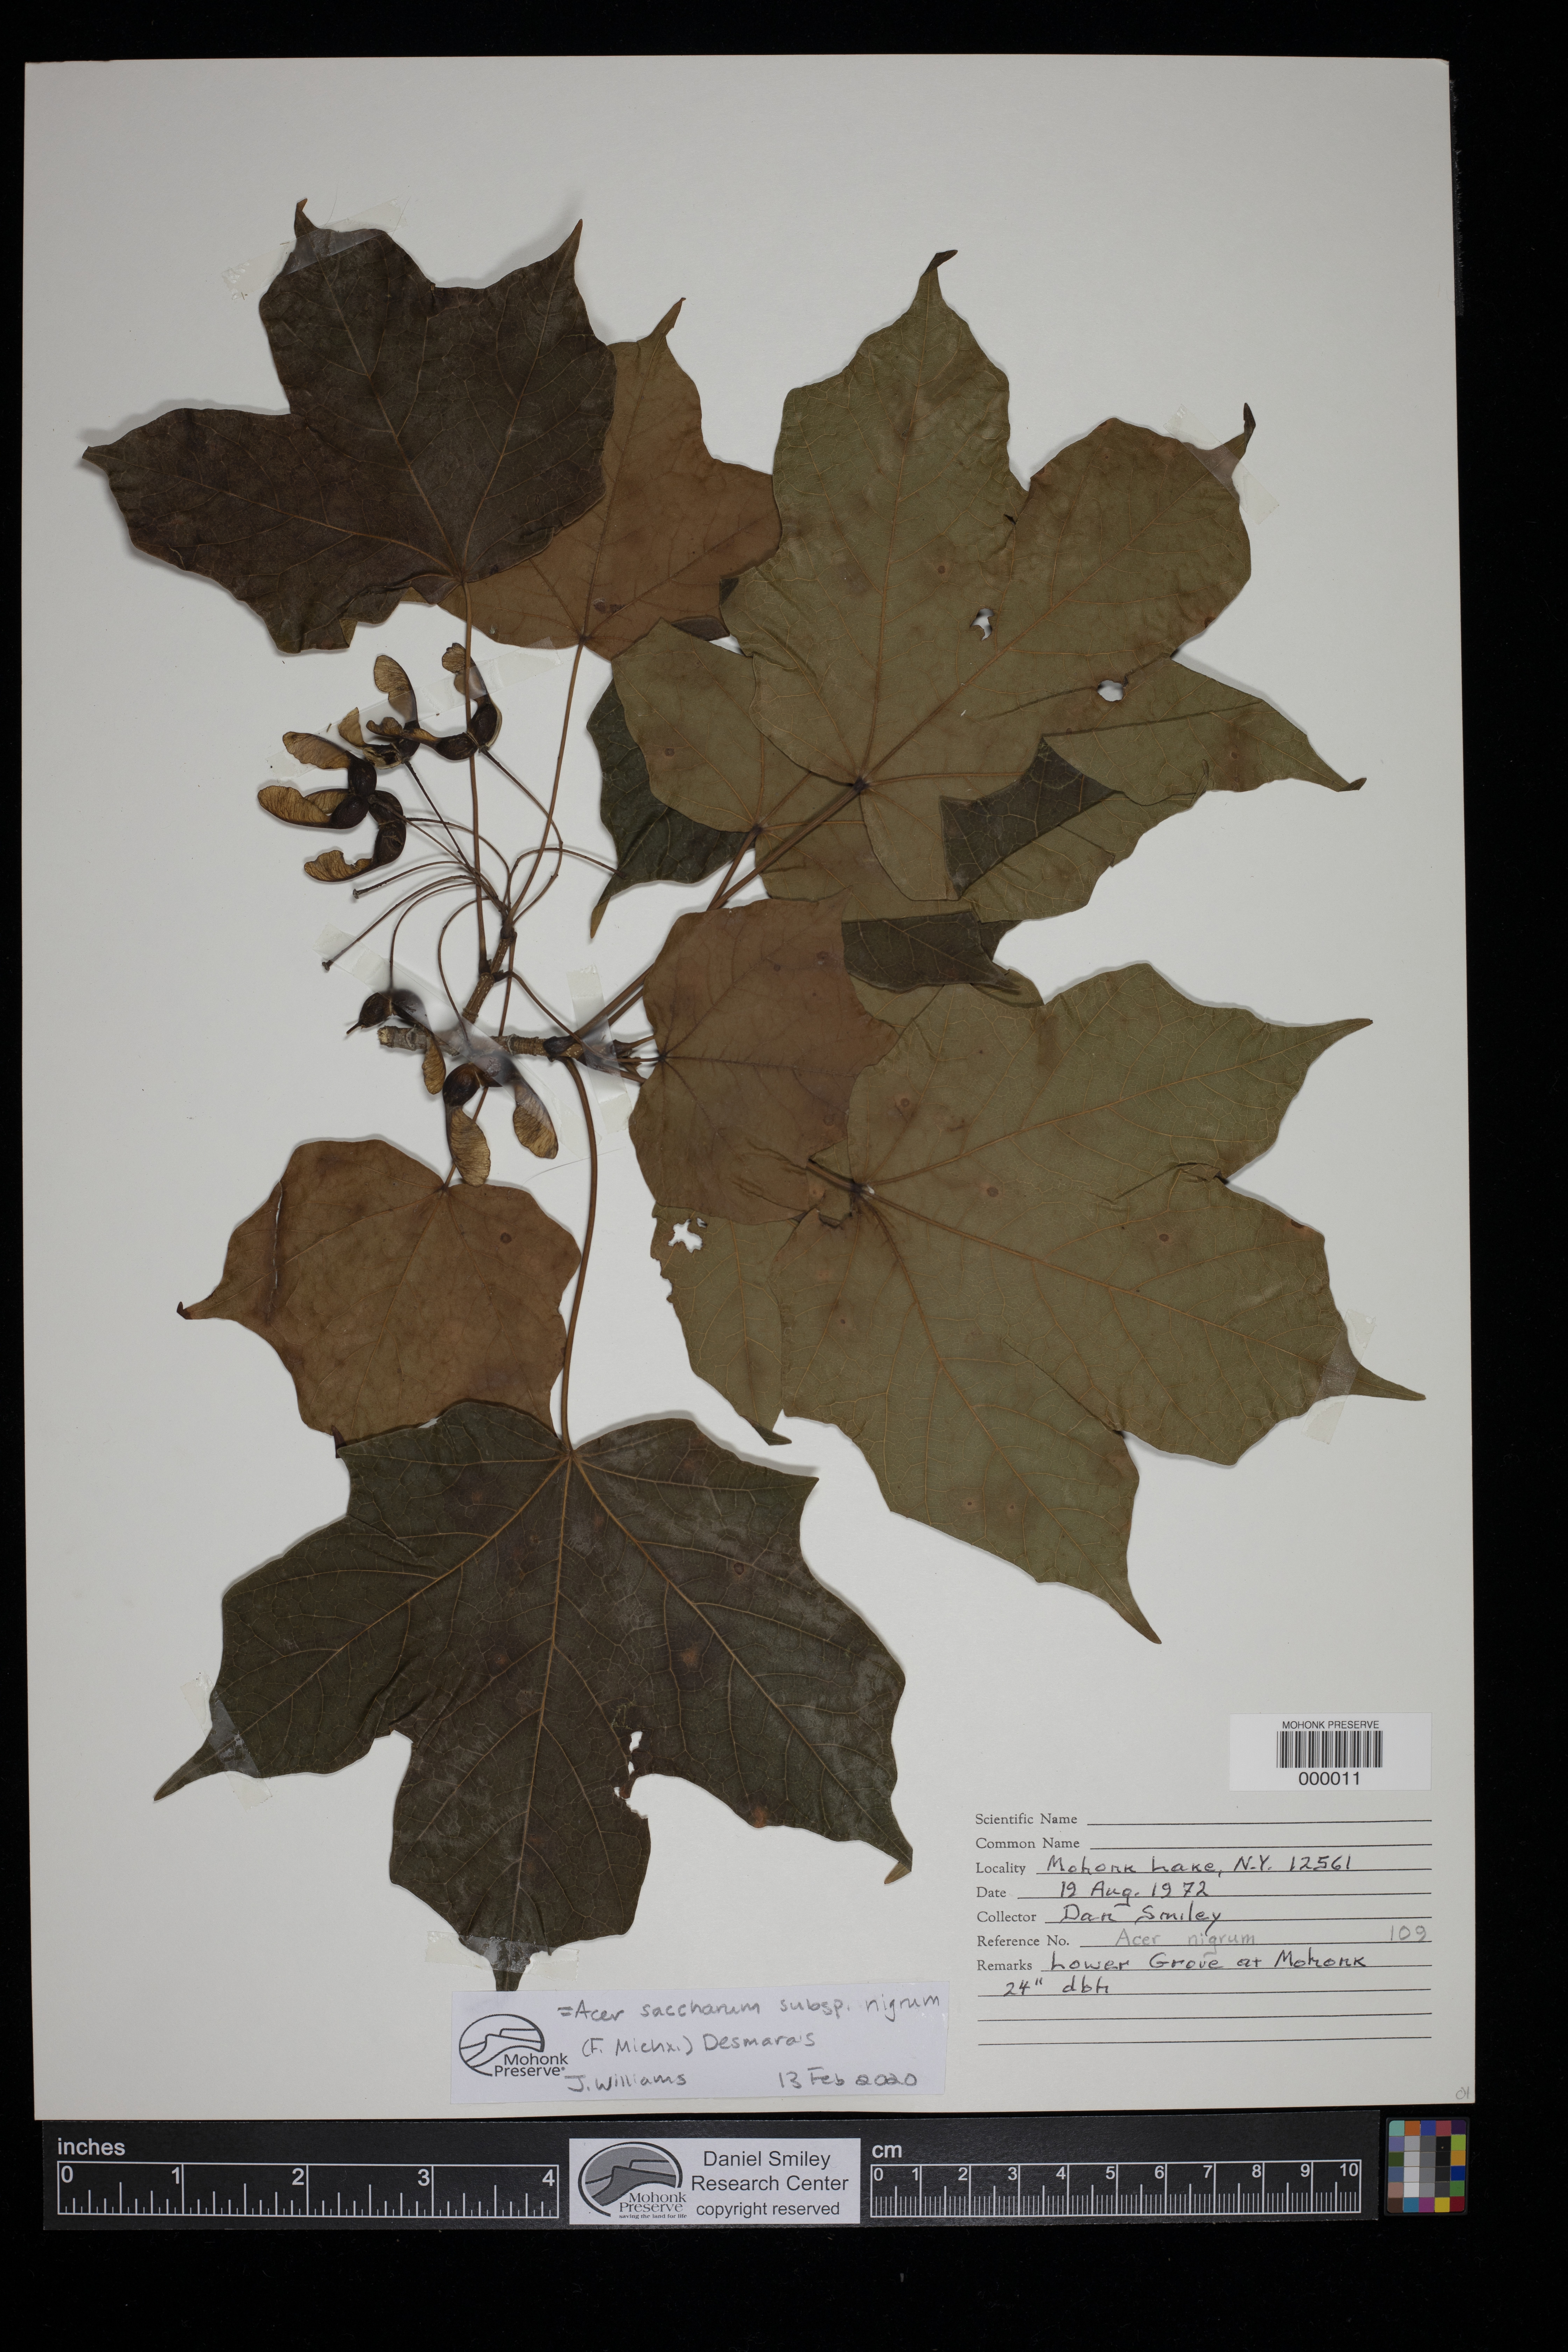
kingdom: Plantae
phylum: Tracheophyta
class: Magnoliopsida
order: Sapindales
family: Sapindaceae
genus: Acer
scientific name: Acer saccharum
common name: Sugar maple
